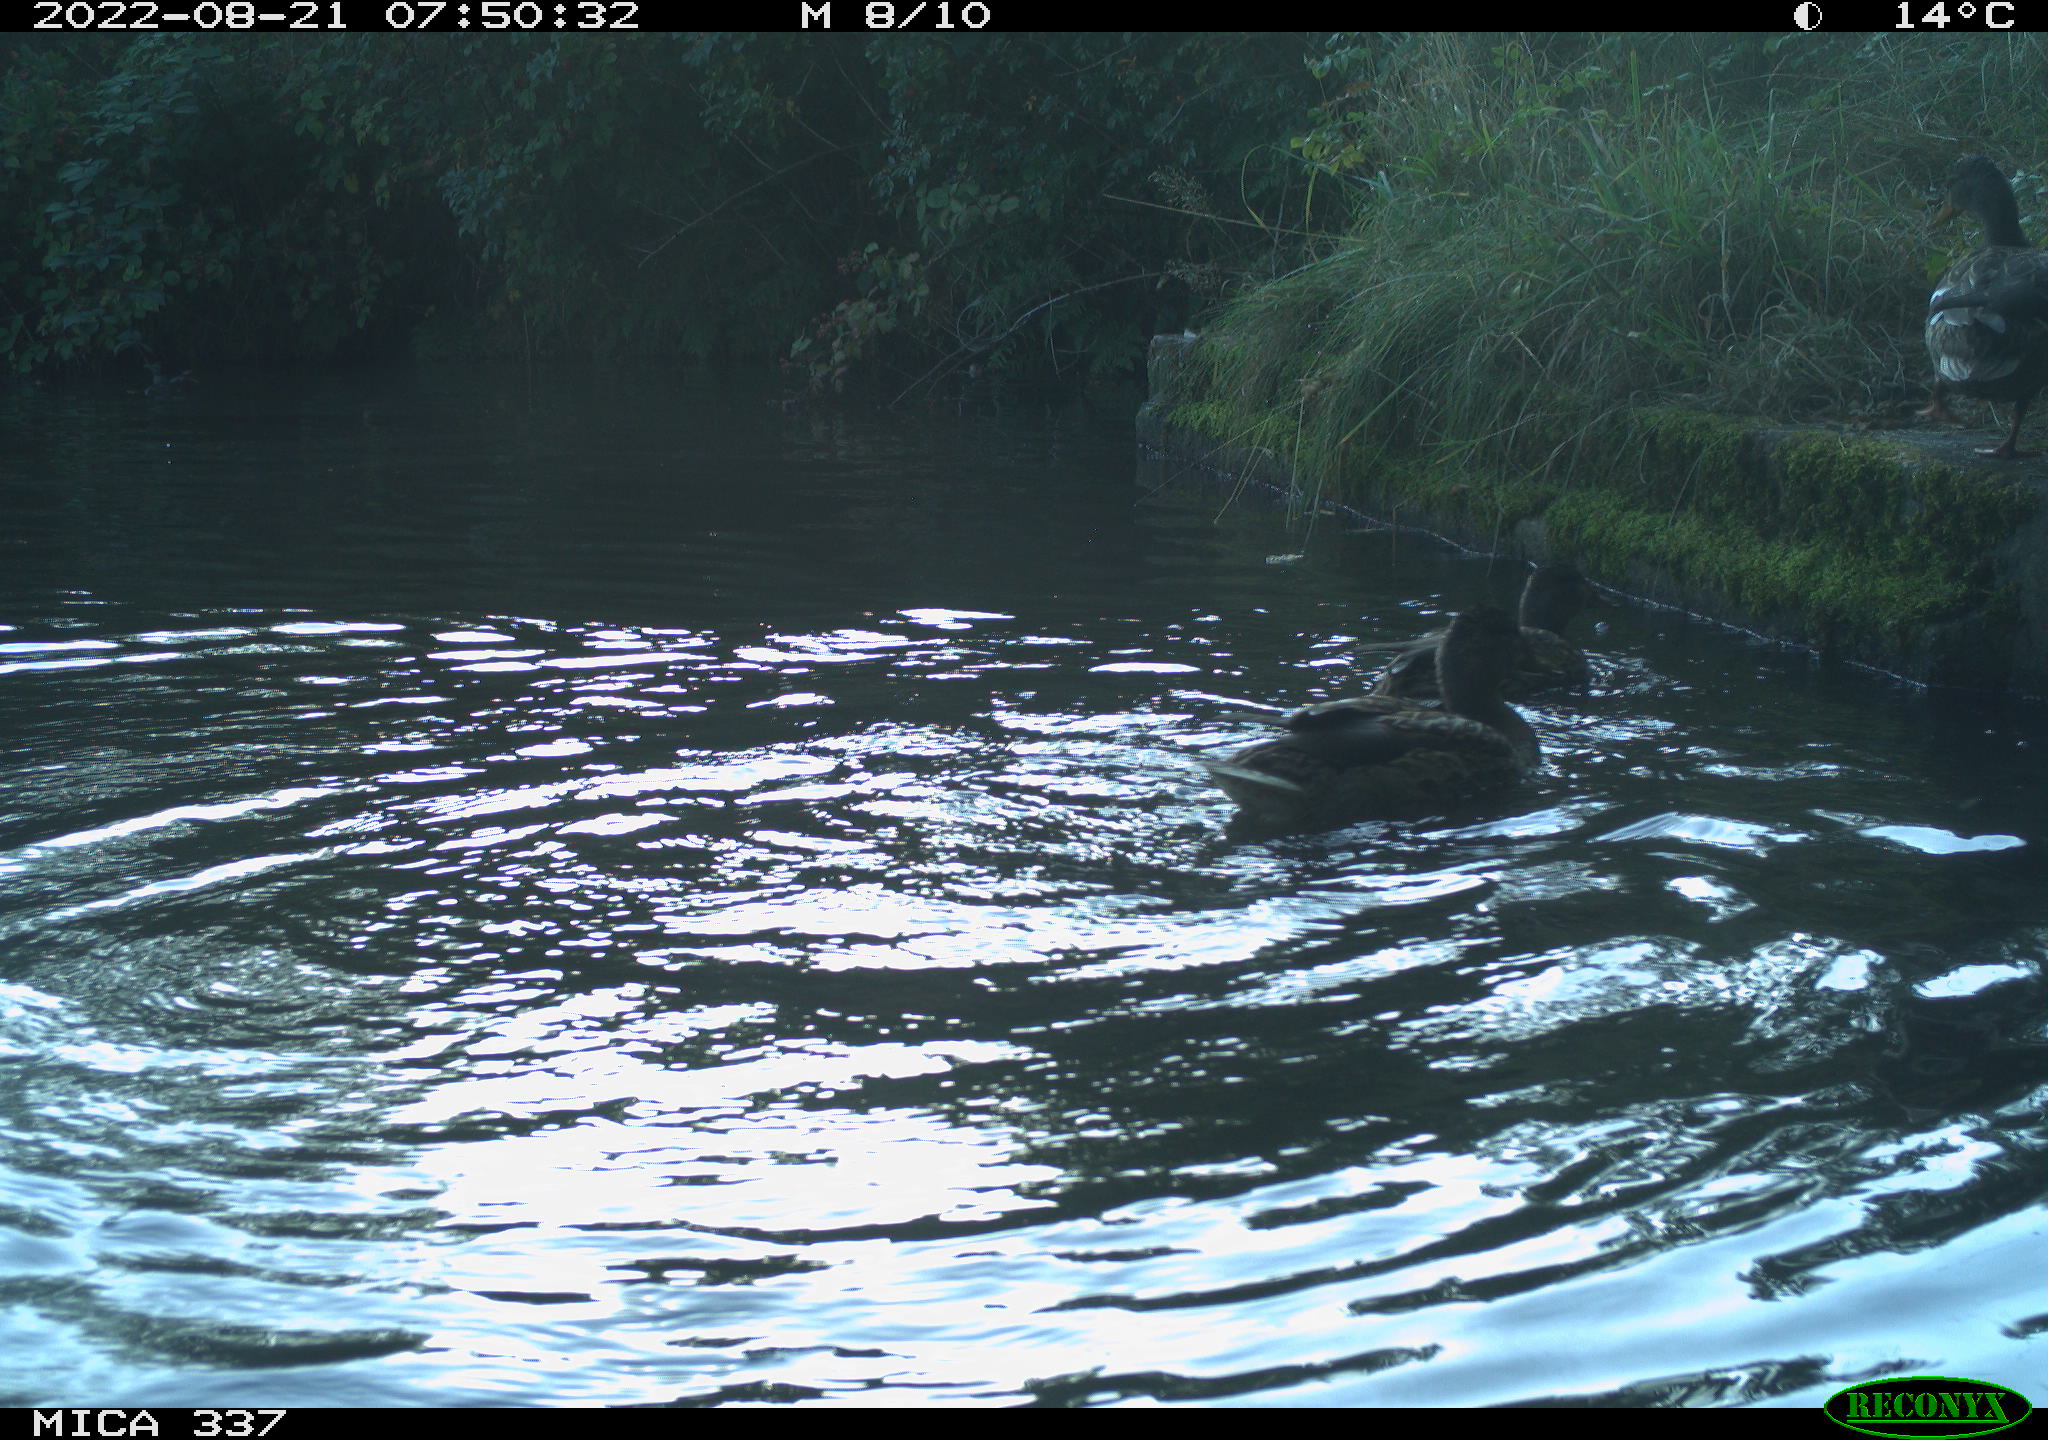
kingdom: Animalia
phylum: Chordata
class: Aves
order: Anseriformes
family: Anatidae
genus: Anas
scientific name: Anas platyrhynchos
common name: Mallard
